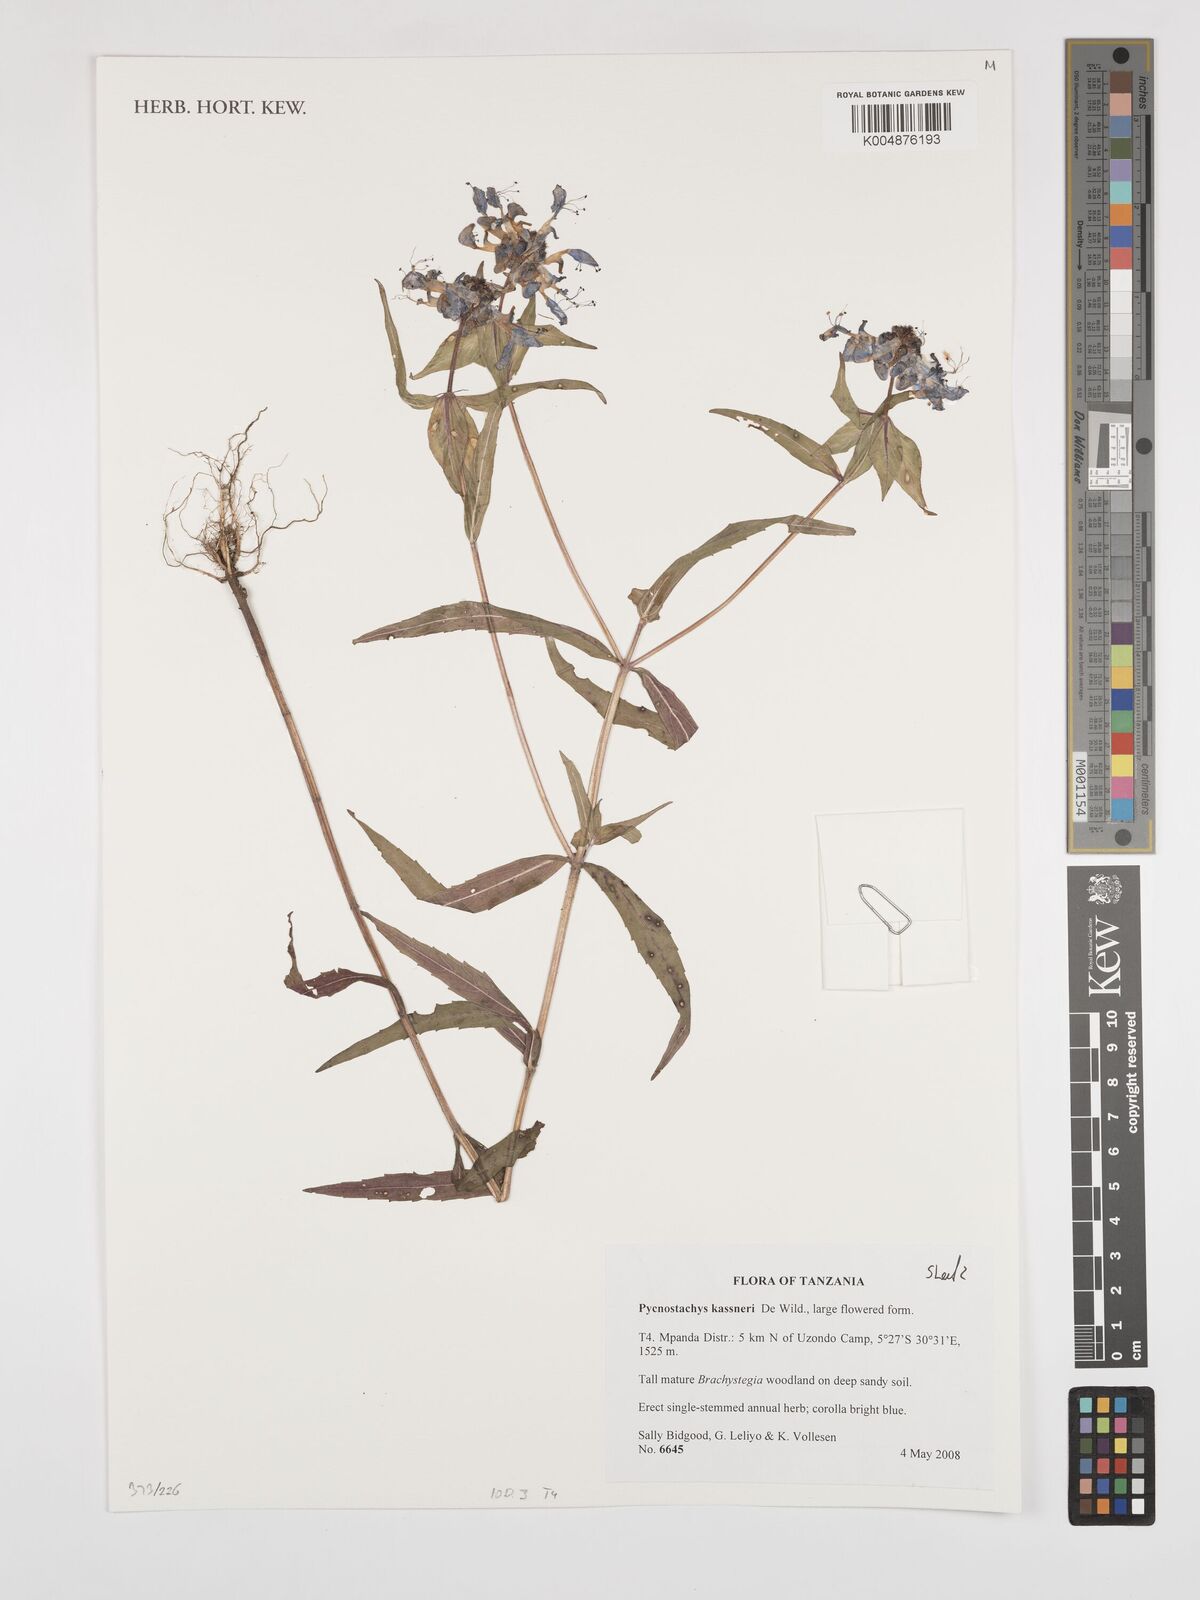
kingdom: Plantae
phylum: Tracheophyta
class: Magnoliopsida
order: Lamiales
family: Lamiaceae
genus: Coleus
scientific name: Coleus scruposus
